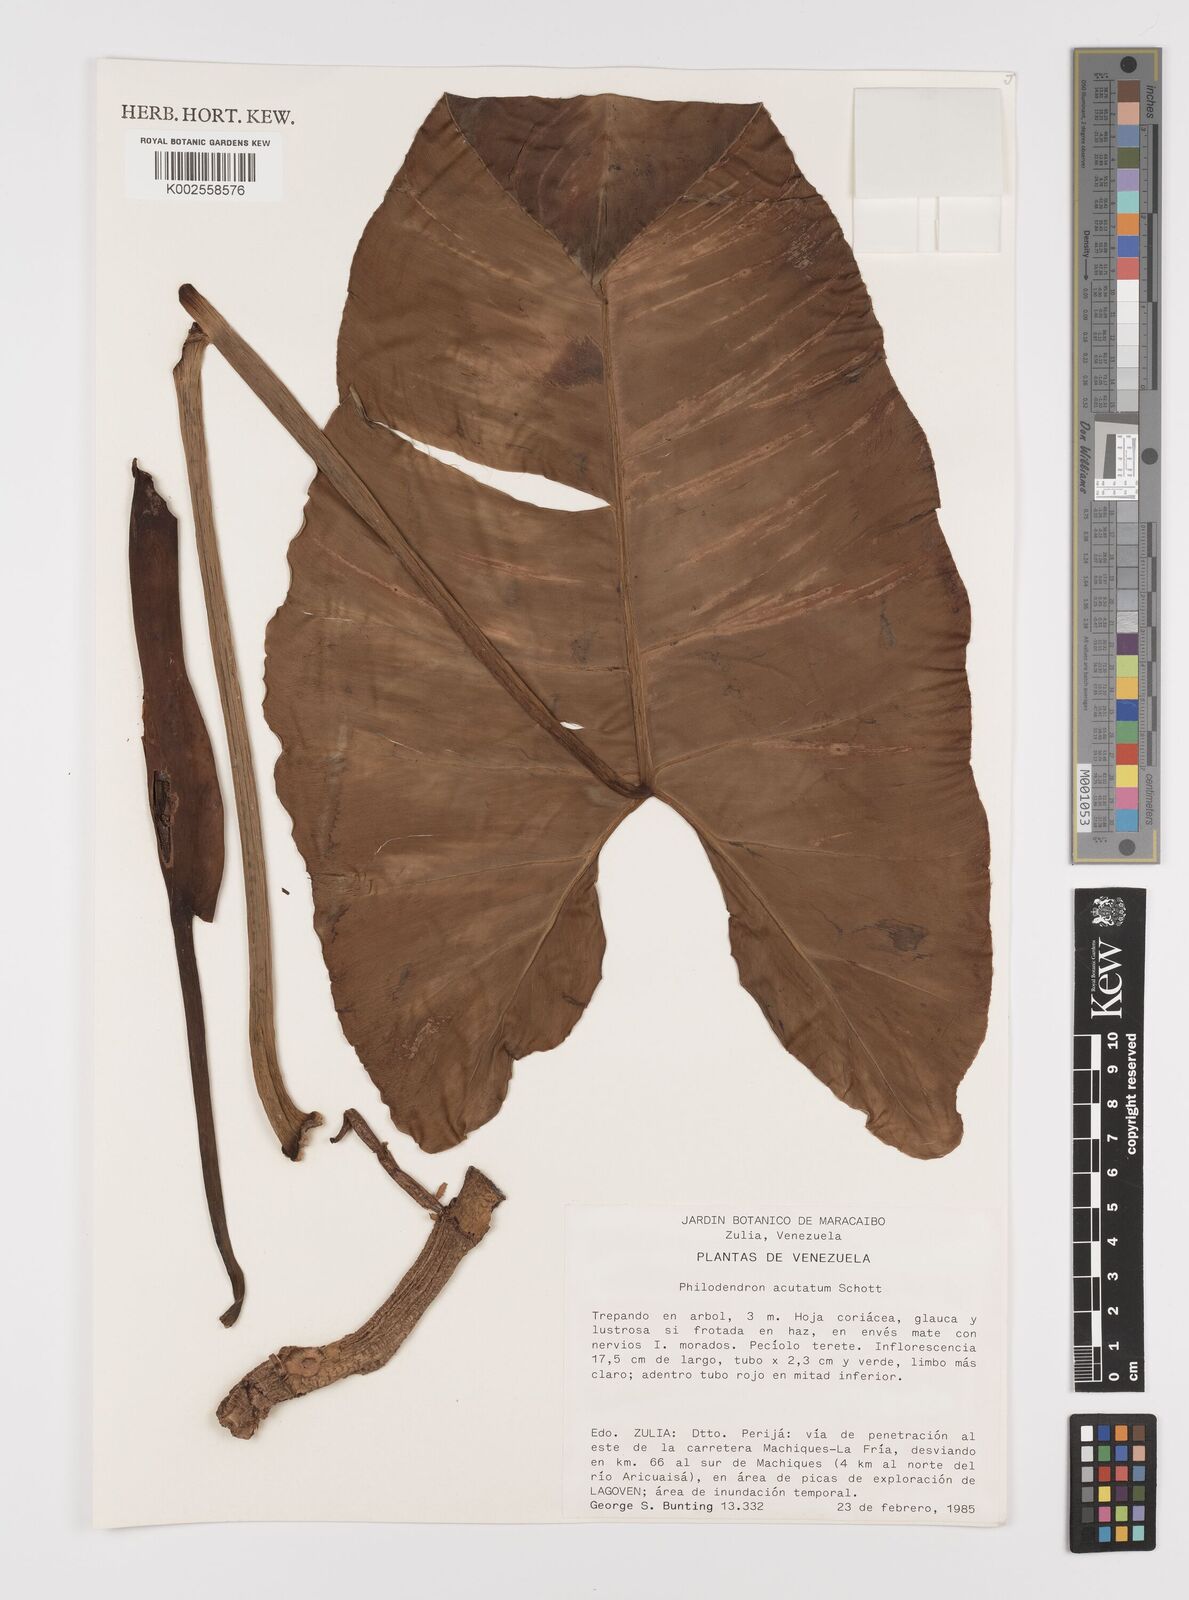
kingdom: Plantae
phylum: Tracheophyta
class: Liliopsida
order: Alismatales
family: Araceae
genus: Philodendron
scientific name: Philodendron quinquenervium
